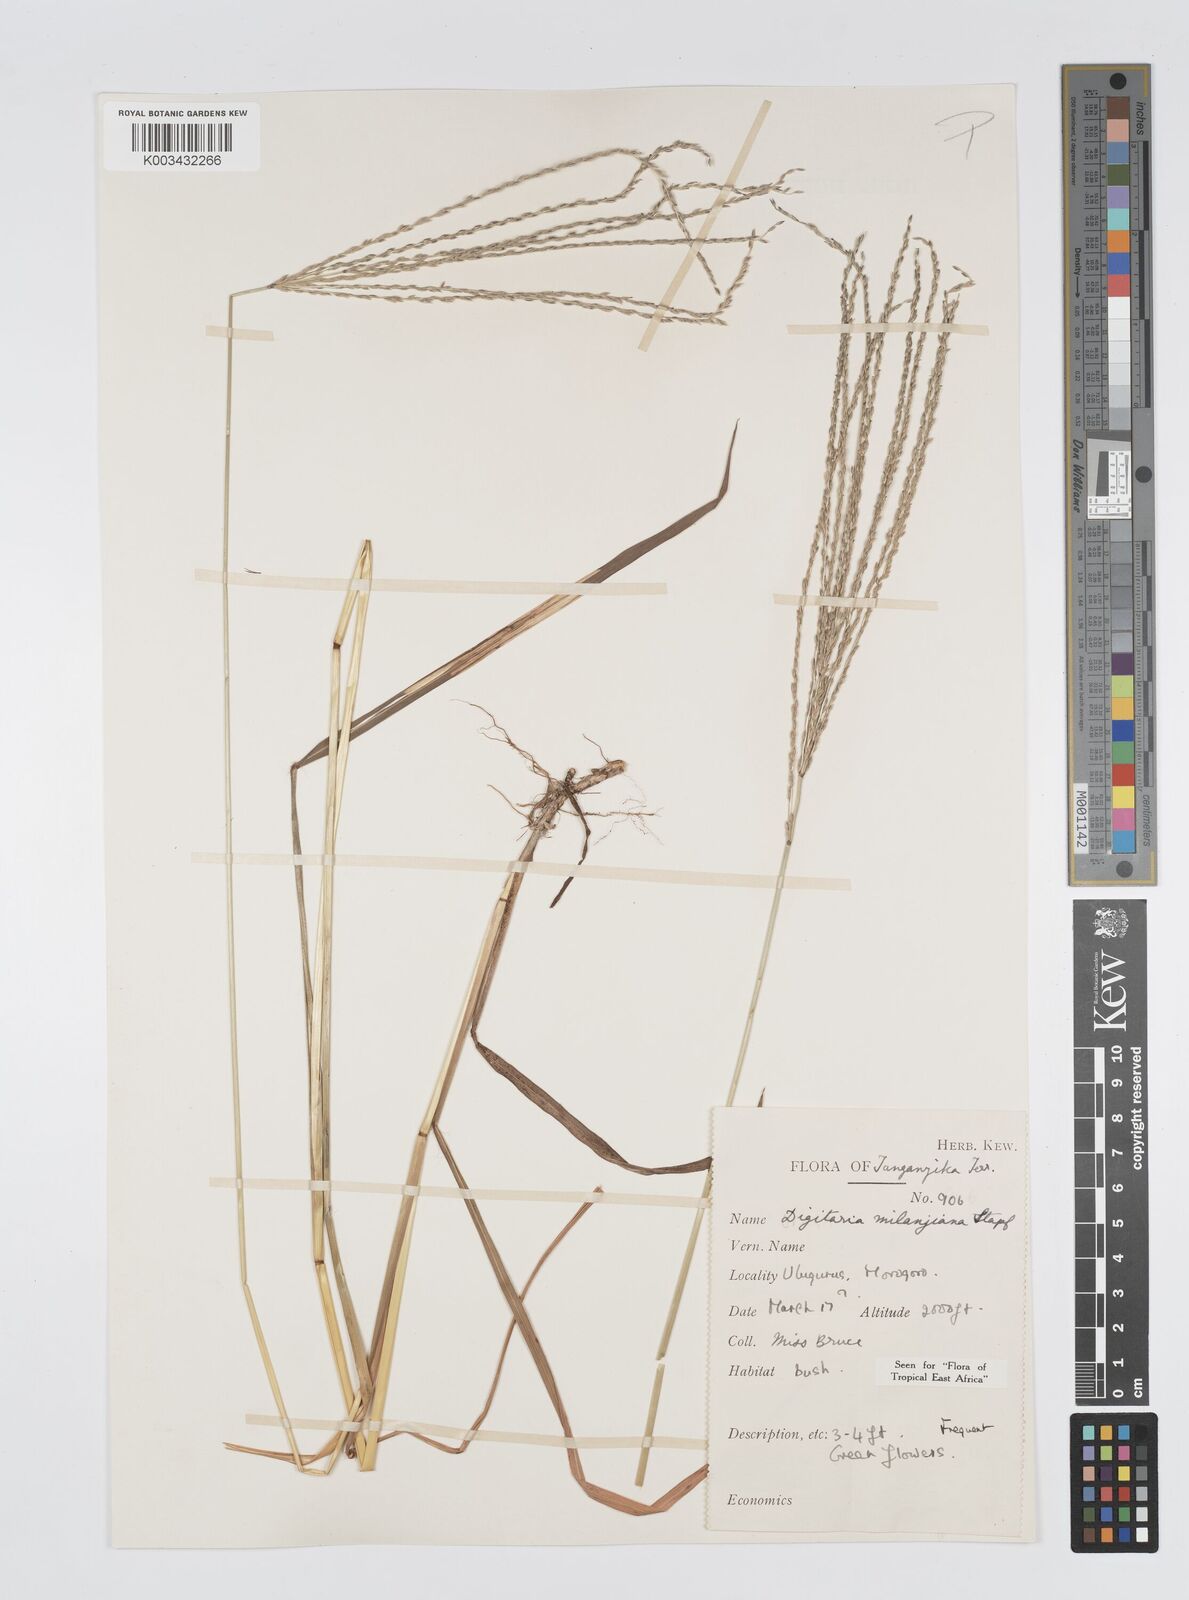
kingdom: Plantae
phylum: Tracheophyta
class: Liliopsida
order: Poales
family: Poaceae
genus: Digitaria
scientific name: Digitaria milanjiana
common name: Madagascar crabgrass
